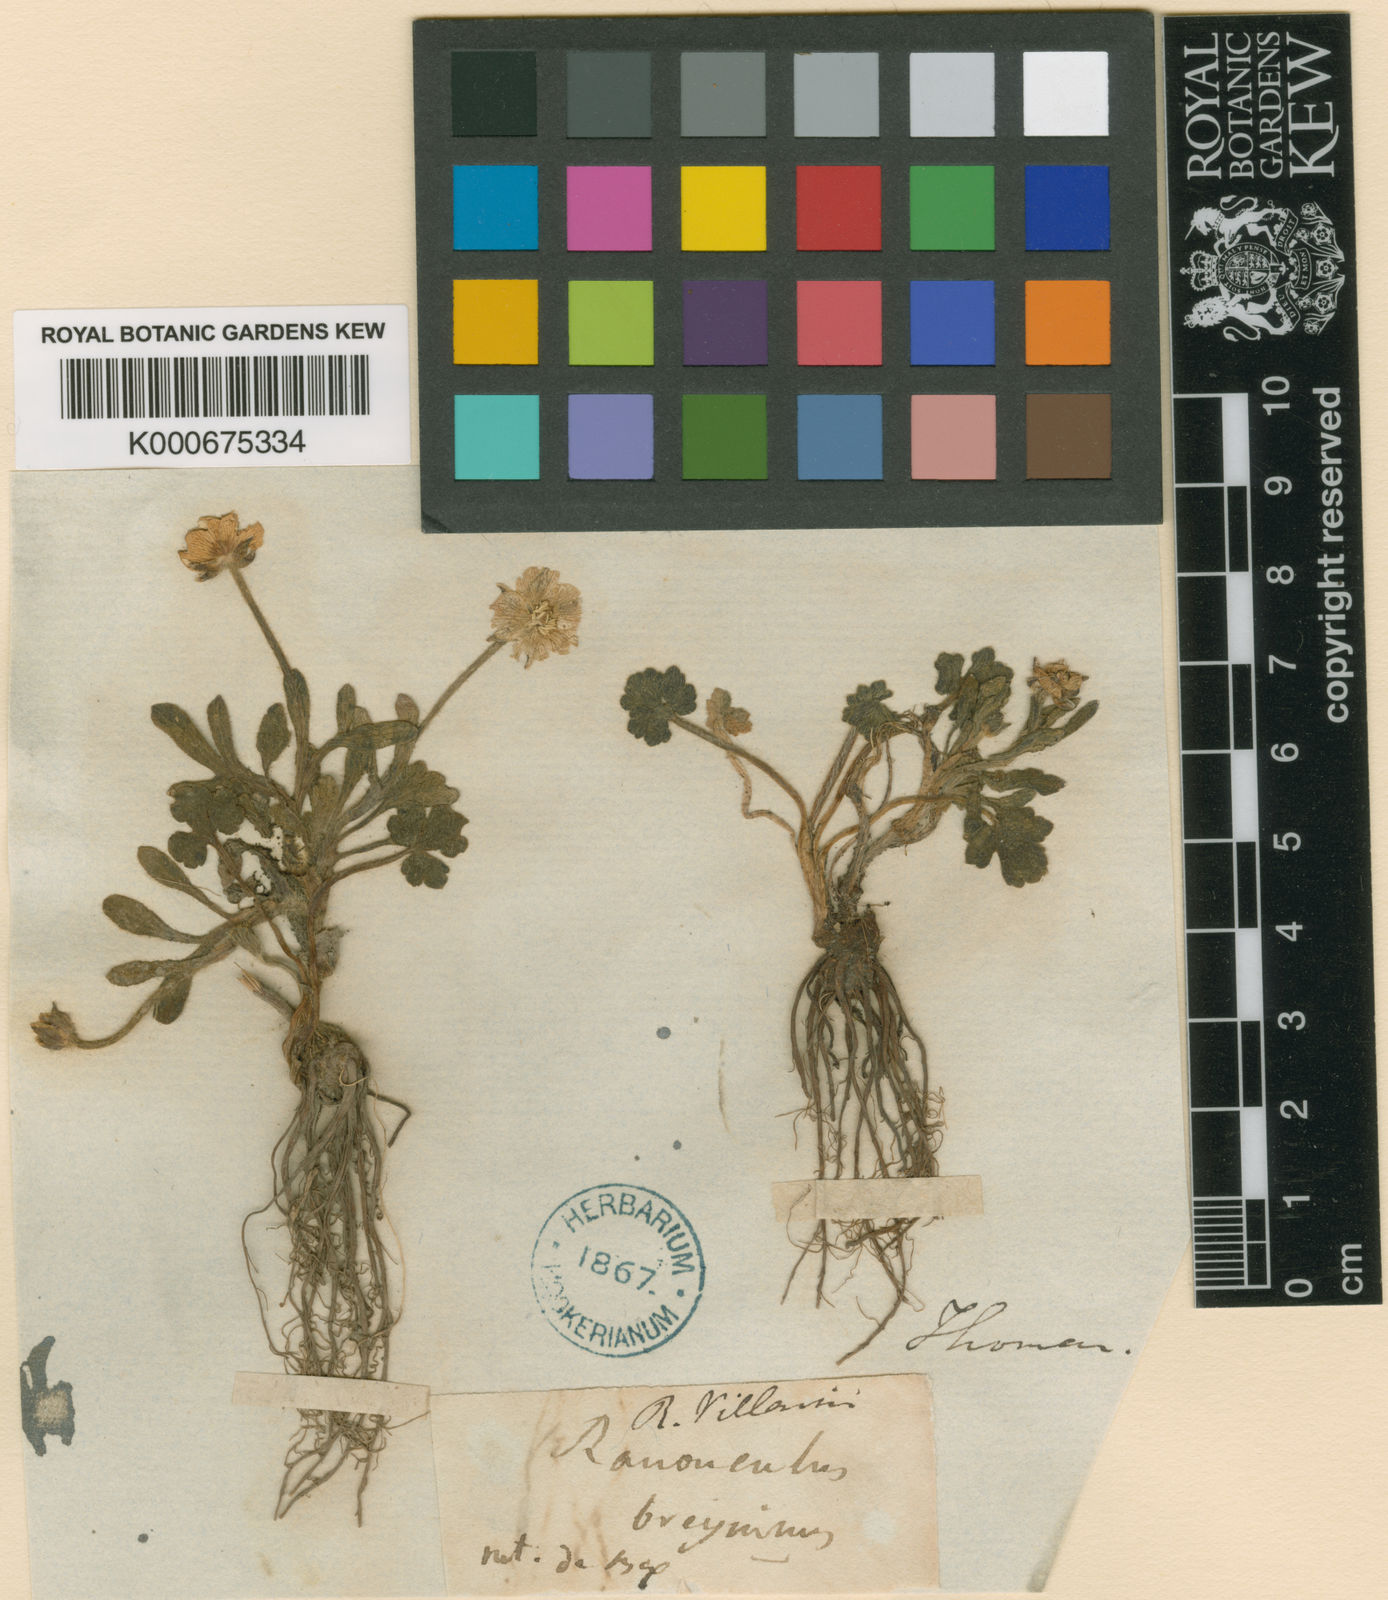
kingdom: Plantae
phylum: Tracheophyta
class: Magnoliopsida
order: Ranunculales
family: Ranunculaceae
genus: Ranunculus
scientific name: Ranunculus montanus
